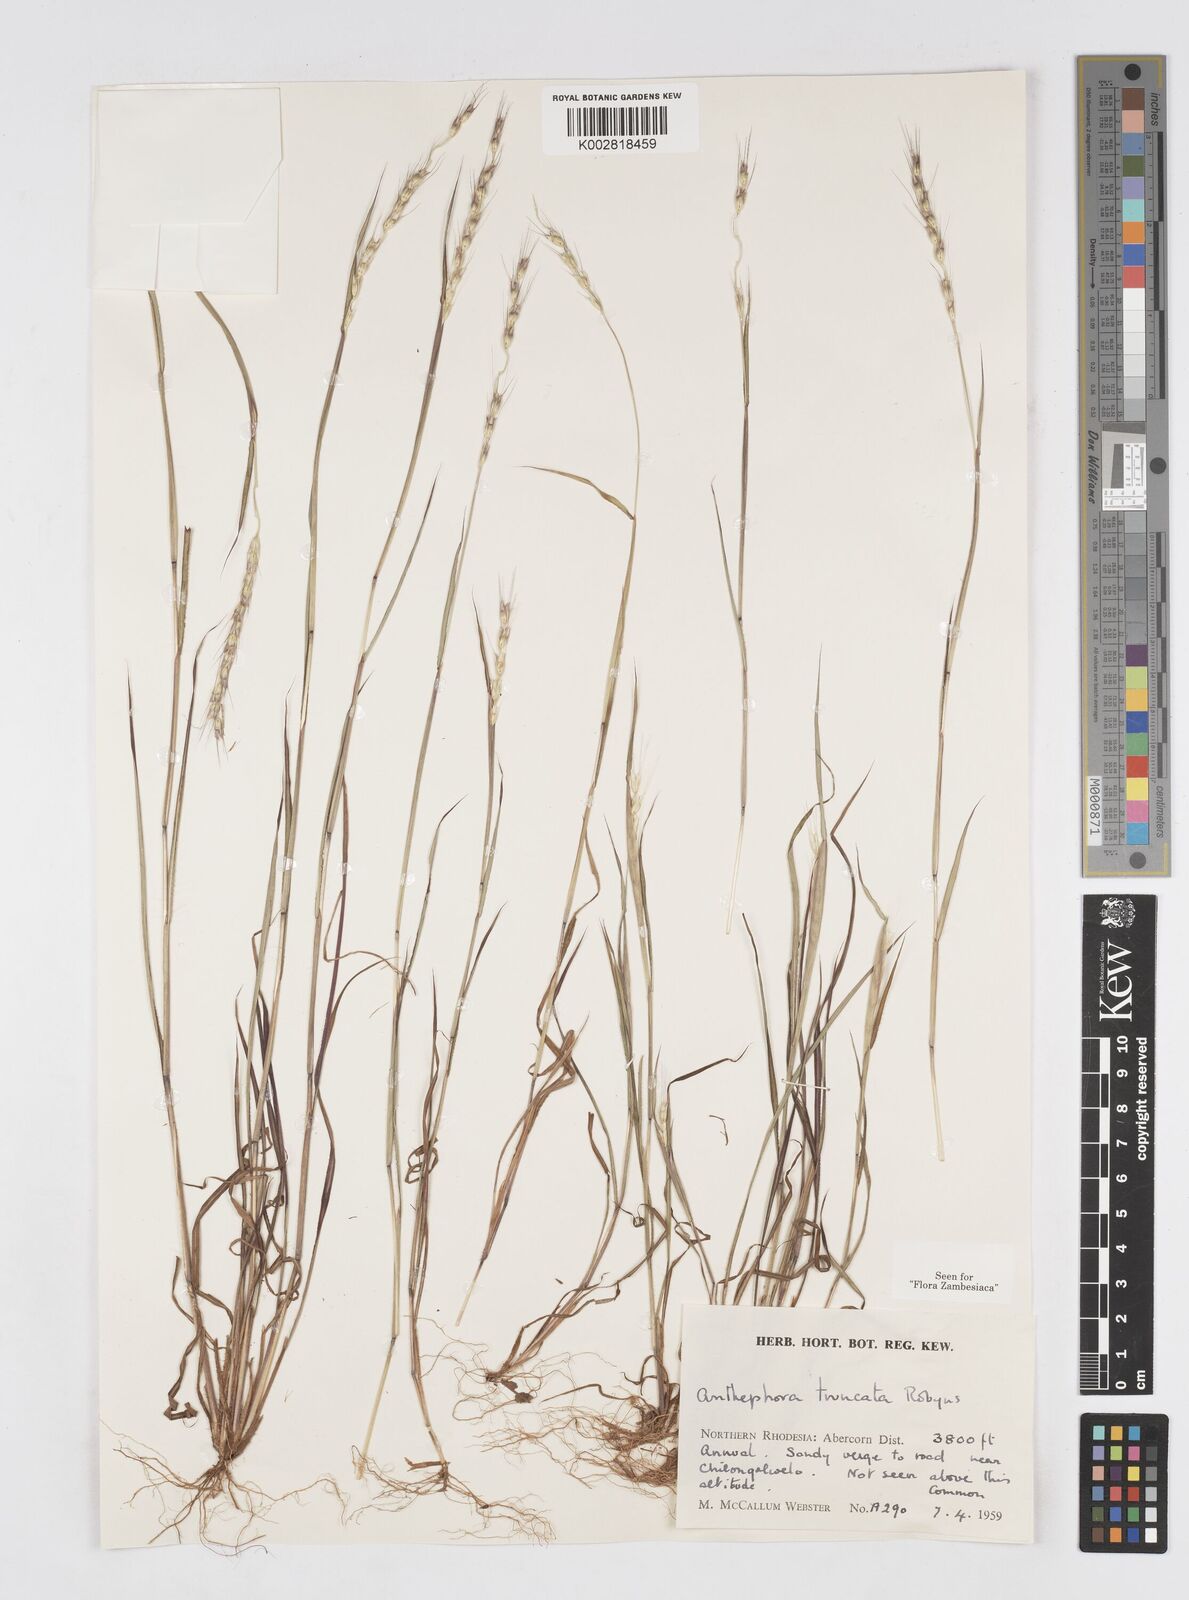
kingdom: Plantae
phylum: Tracheophyta
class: Liliopsida
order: Poales
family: Poaceae
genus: Anthephora
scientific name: Anthephora truncata
